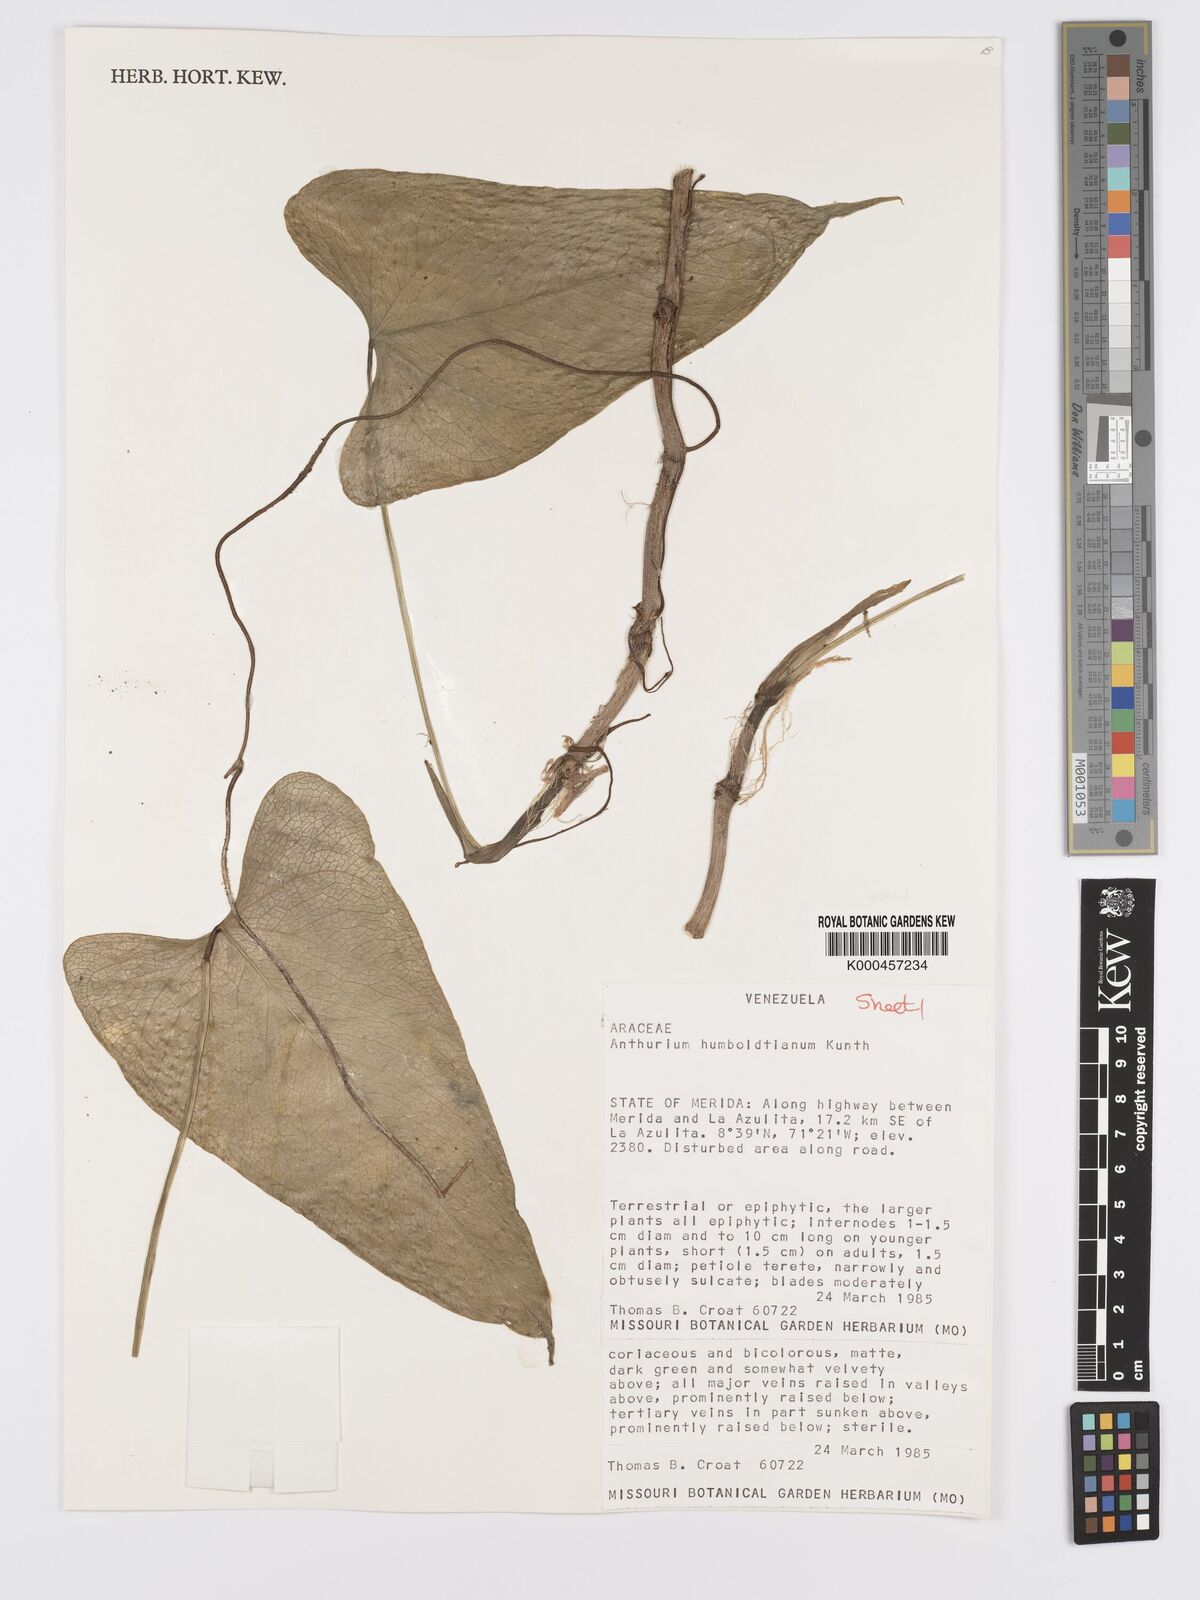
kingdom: Plantae
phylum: Tracheophyta
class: Liliopsida
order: Alismatales
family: Araceae
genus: Anthurium
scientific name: Anthurium
